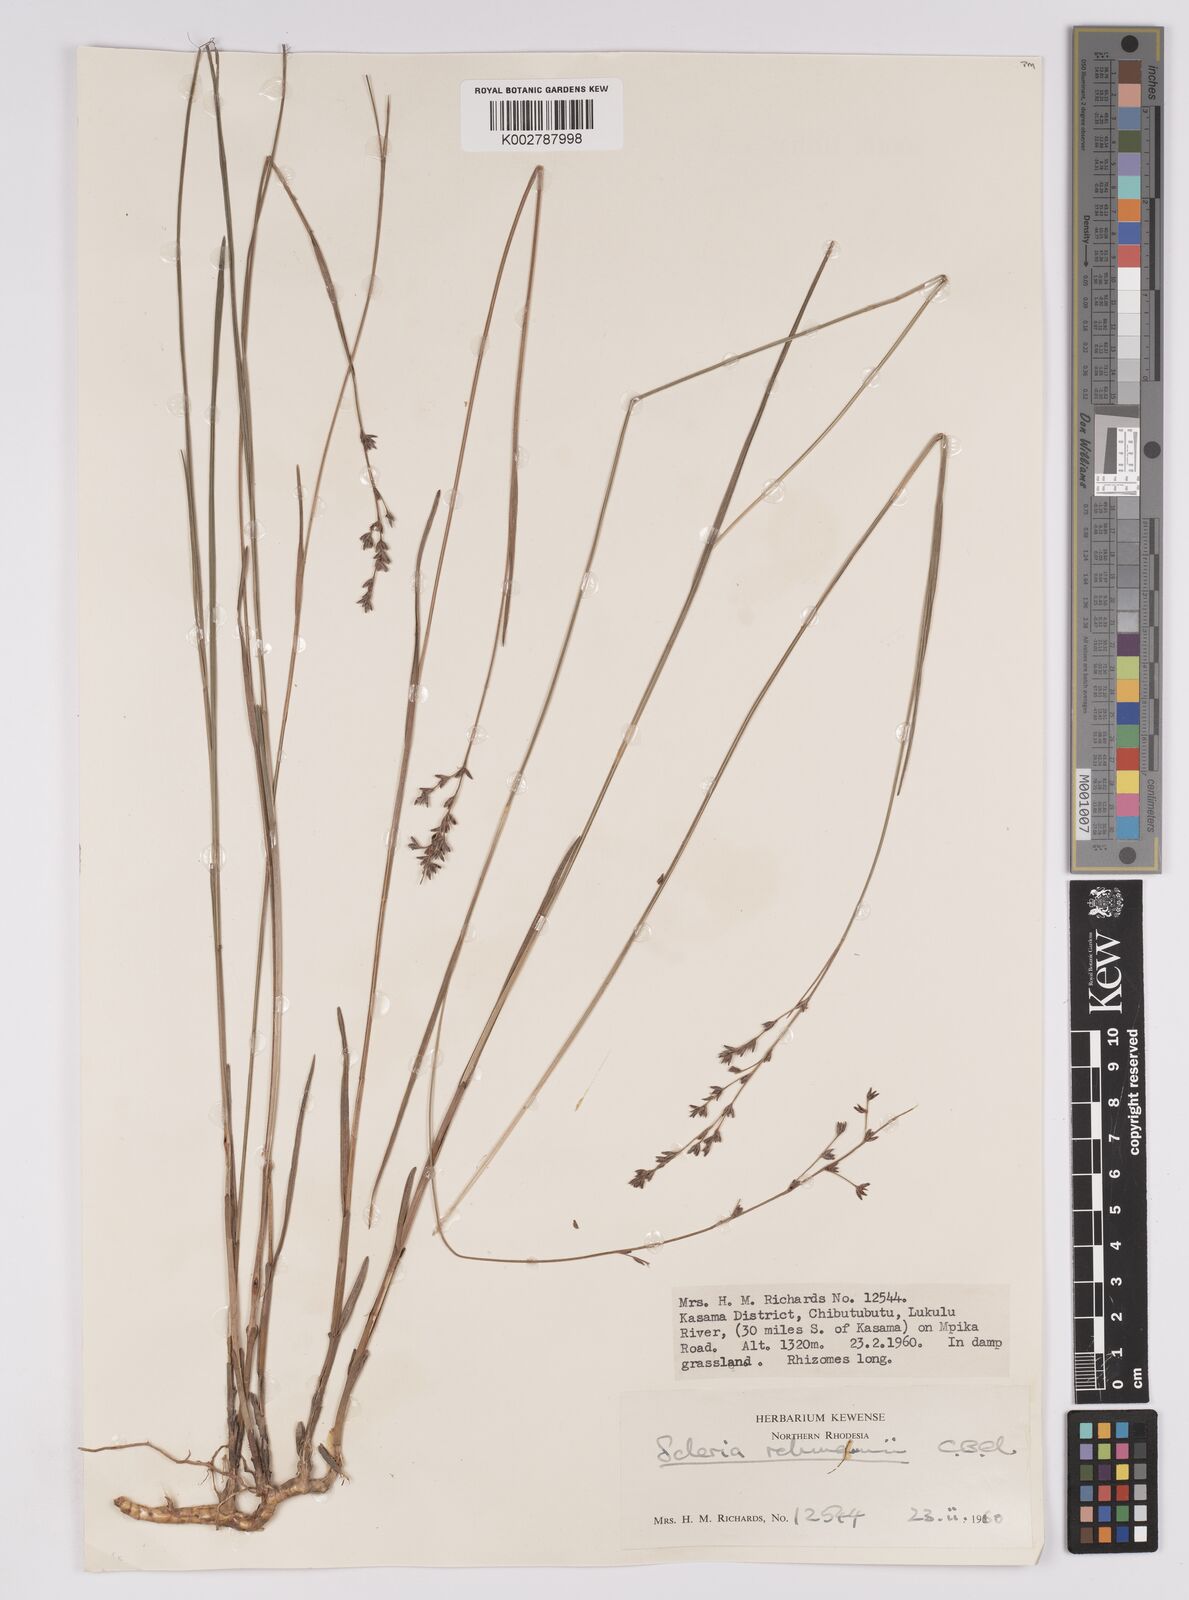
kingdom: Plantae
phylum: Tracheophyta
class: Liliopsida
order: Poales
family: Cyperaceae
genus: Scleria
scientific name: Scleria rehmannii
